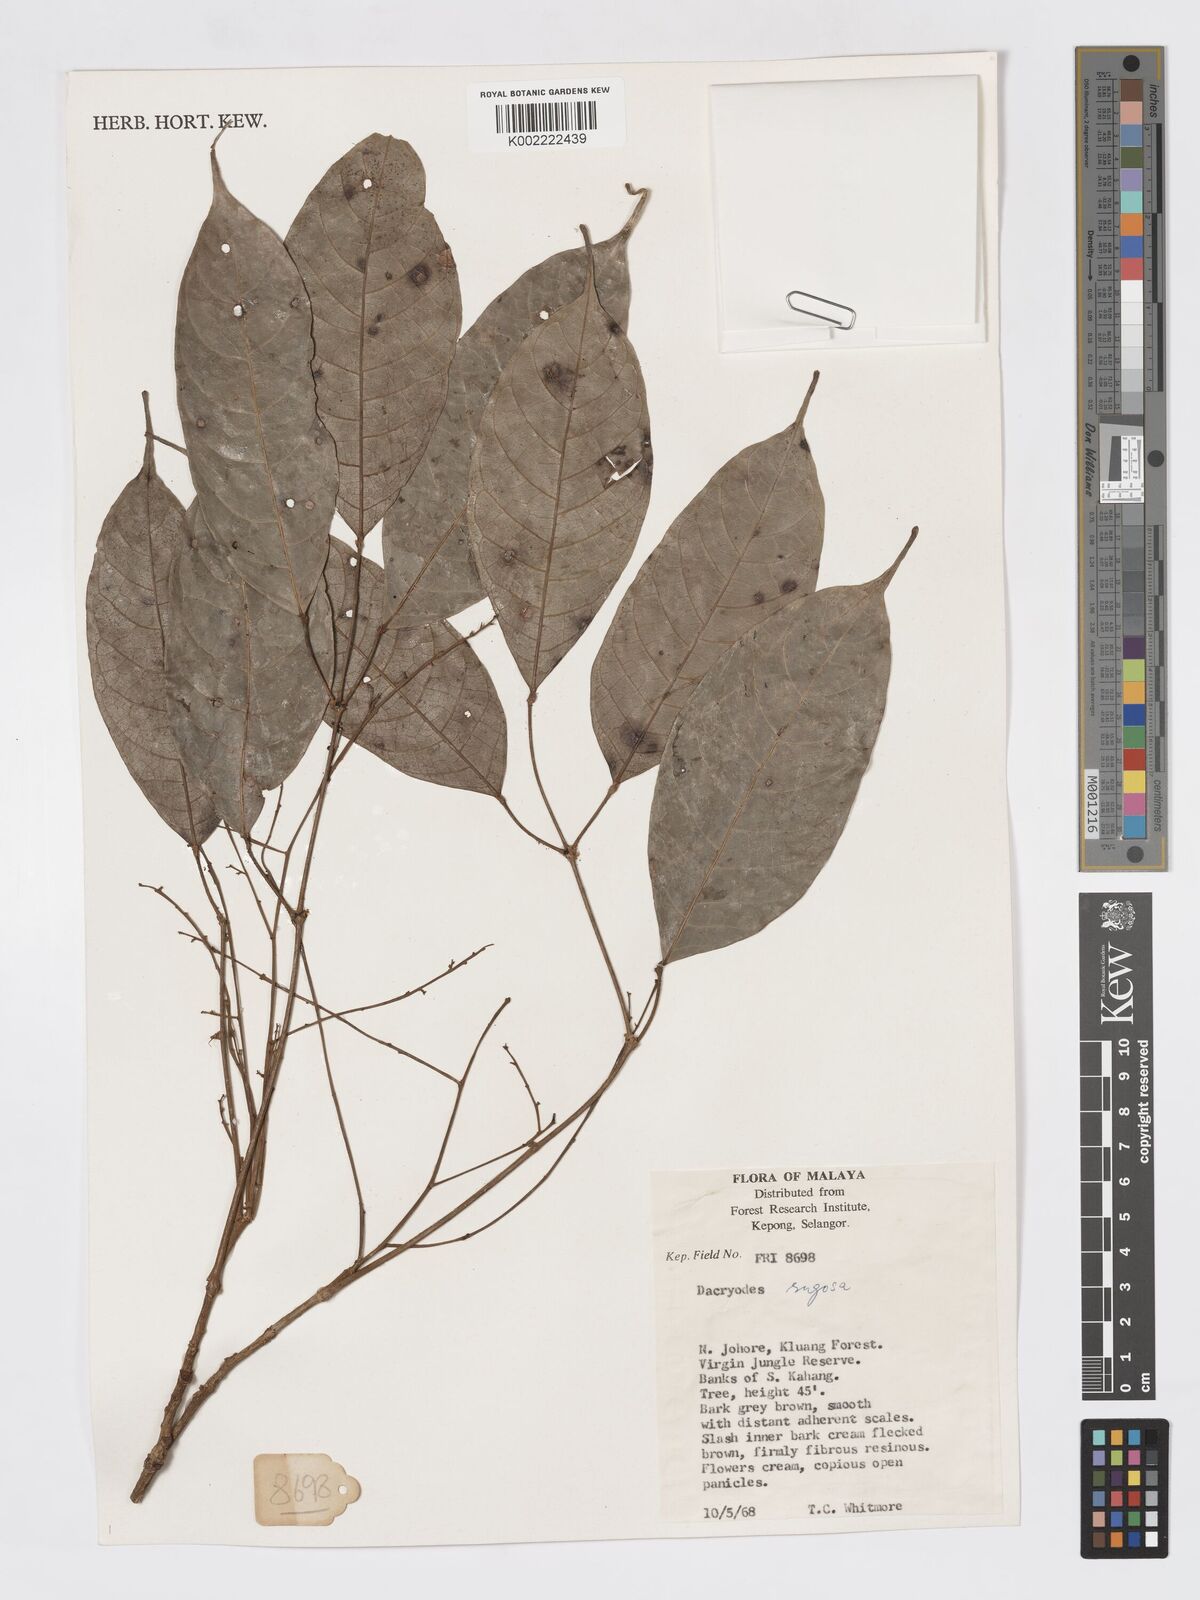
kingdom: Plantae
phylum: Tracheophyta
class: Magnoliopsida
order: Sapindales
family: Burseraceae
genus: Dacryodes
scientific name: Dacryodes rugosa
